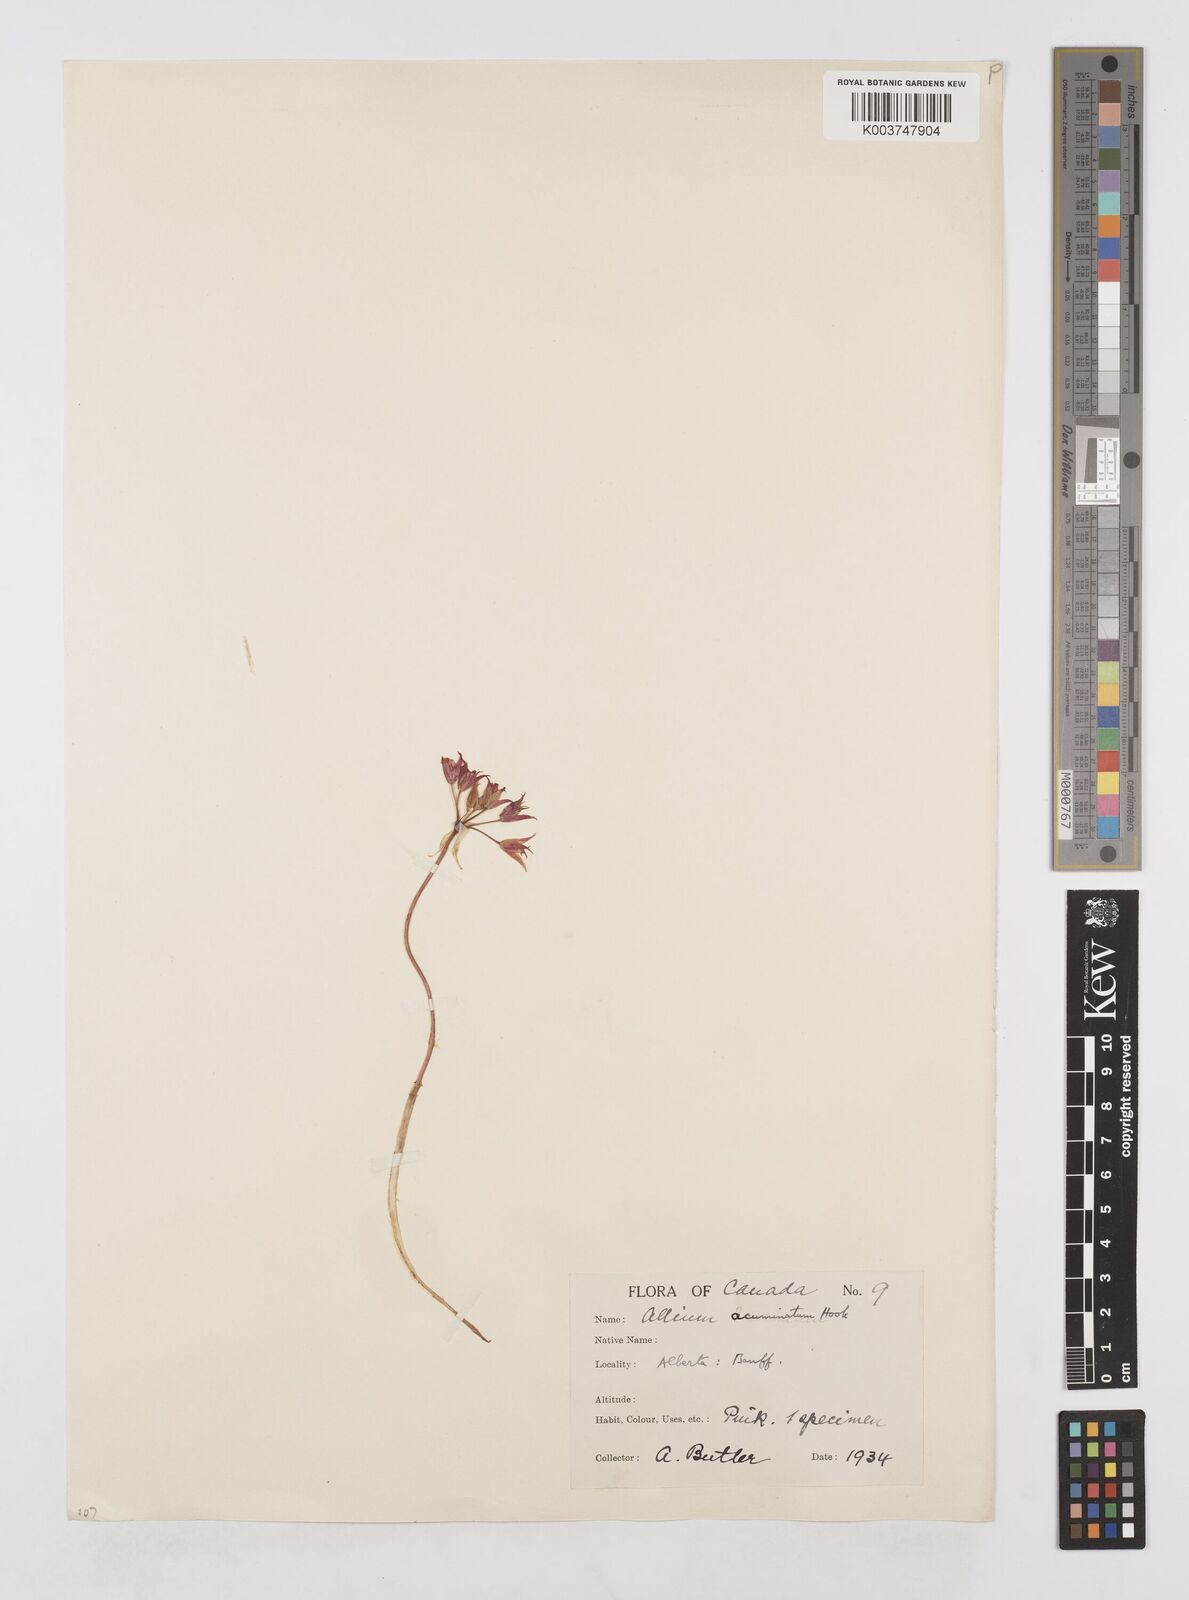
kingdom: Plantae
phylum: Tracheophyta
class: Liliopsida
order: Asparagales
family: Amaryllidaceae
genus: Allium
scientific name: Allium acuminatum
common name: Hooker's onion
